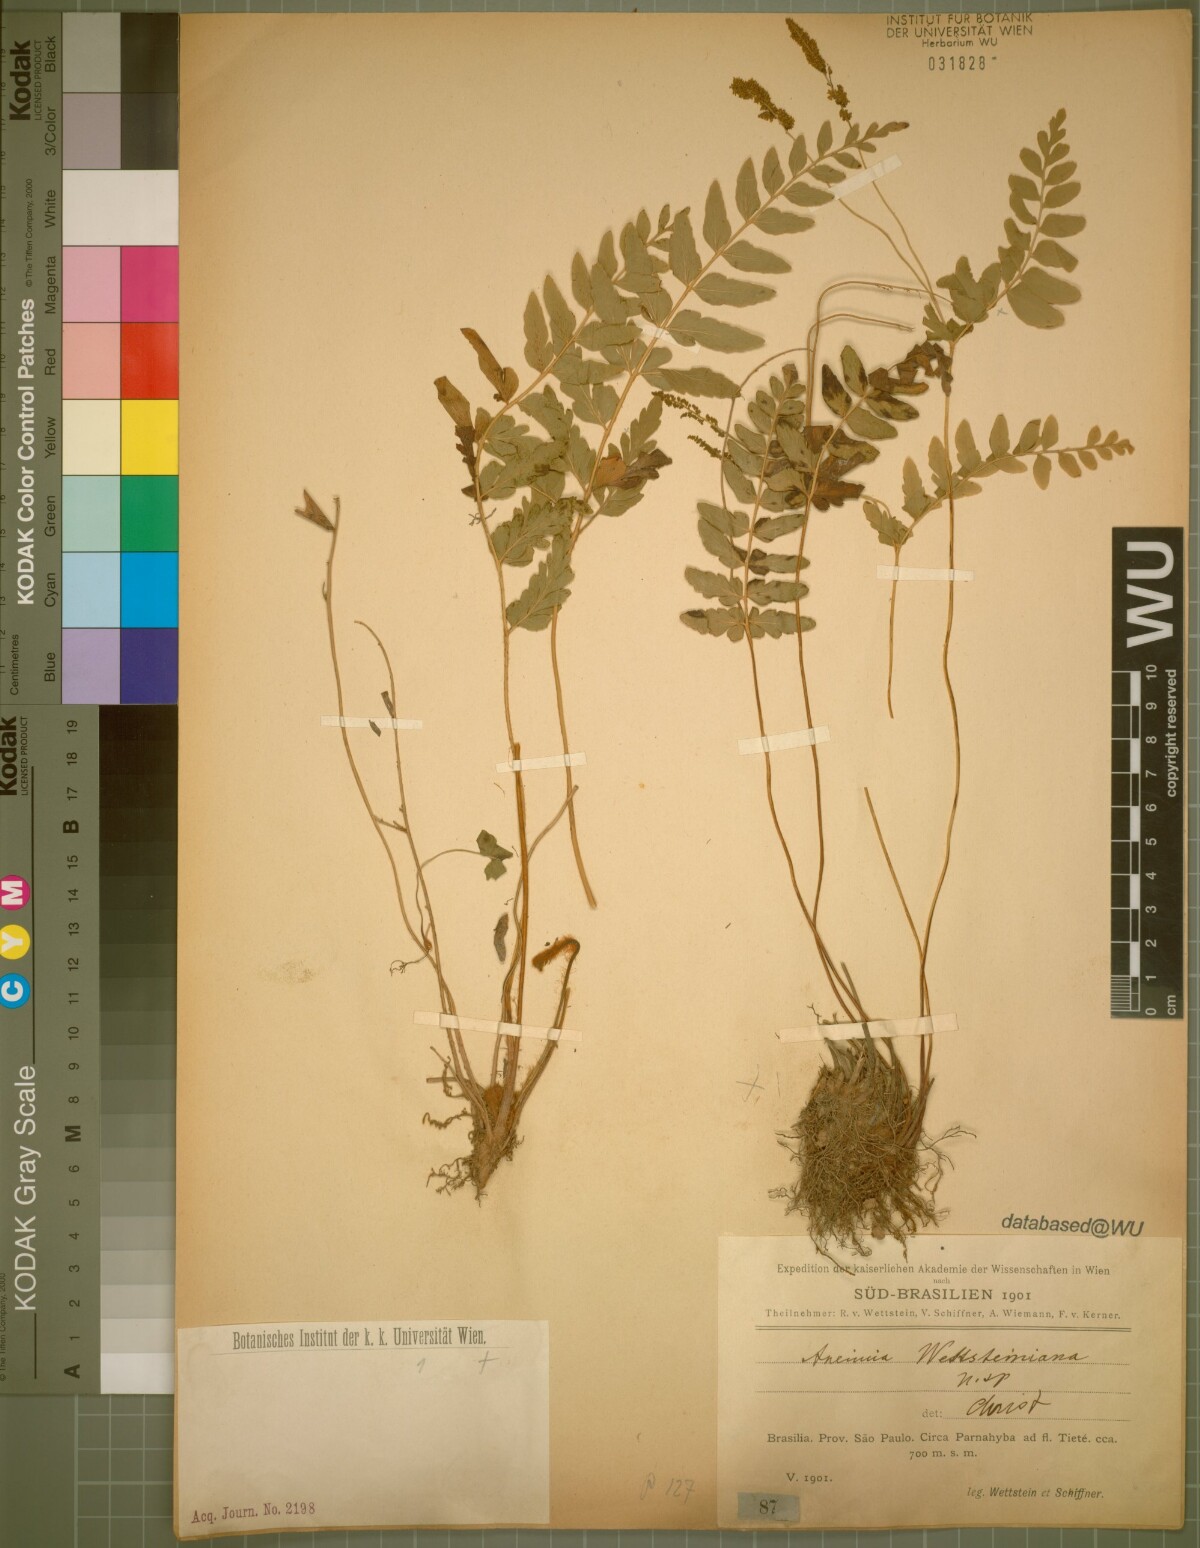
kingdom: Plantae
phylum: Tracheophyta
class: Polypodiopsida
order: Schizaeales
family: Anemiaceae
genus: Anemia
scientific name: Anemia wettsteinii
